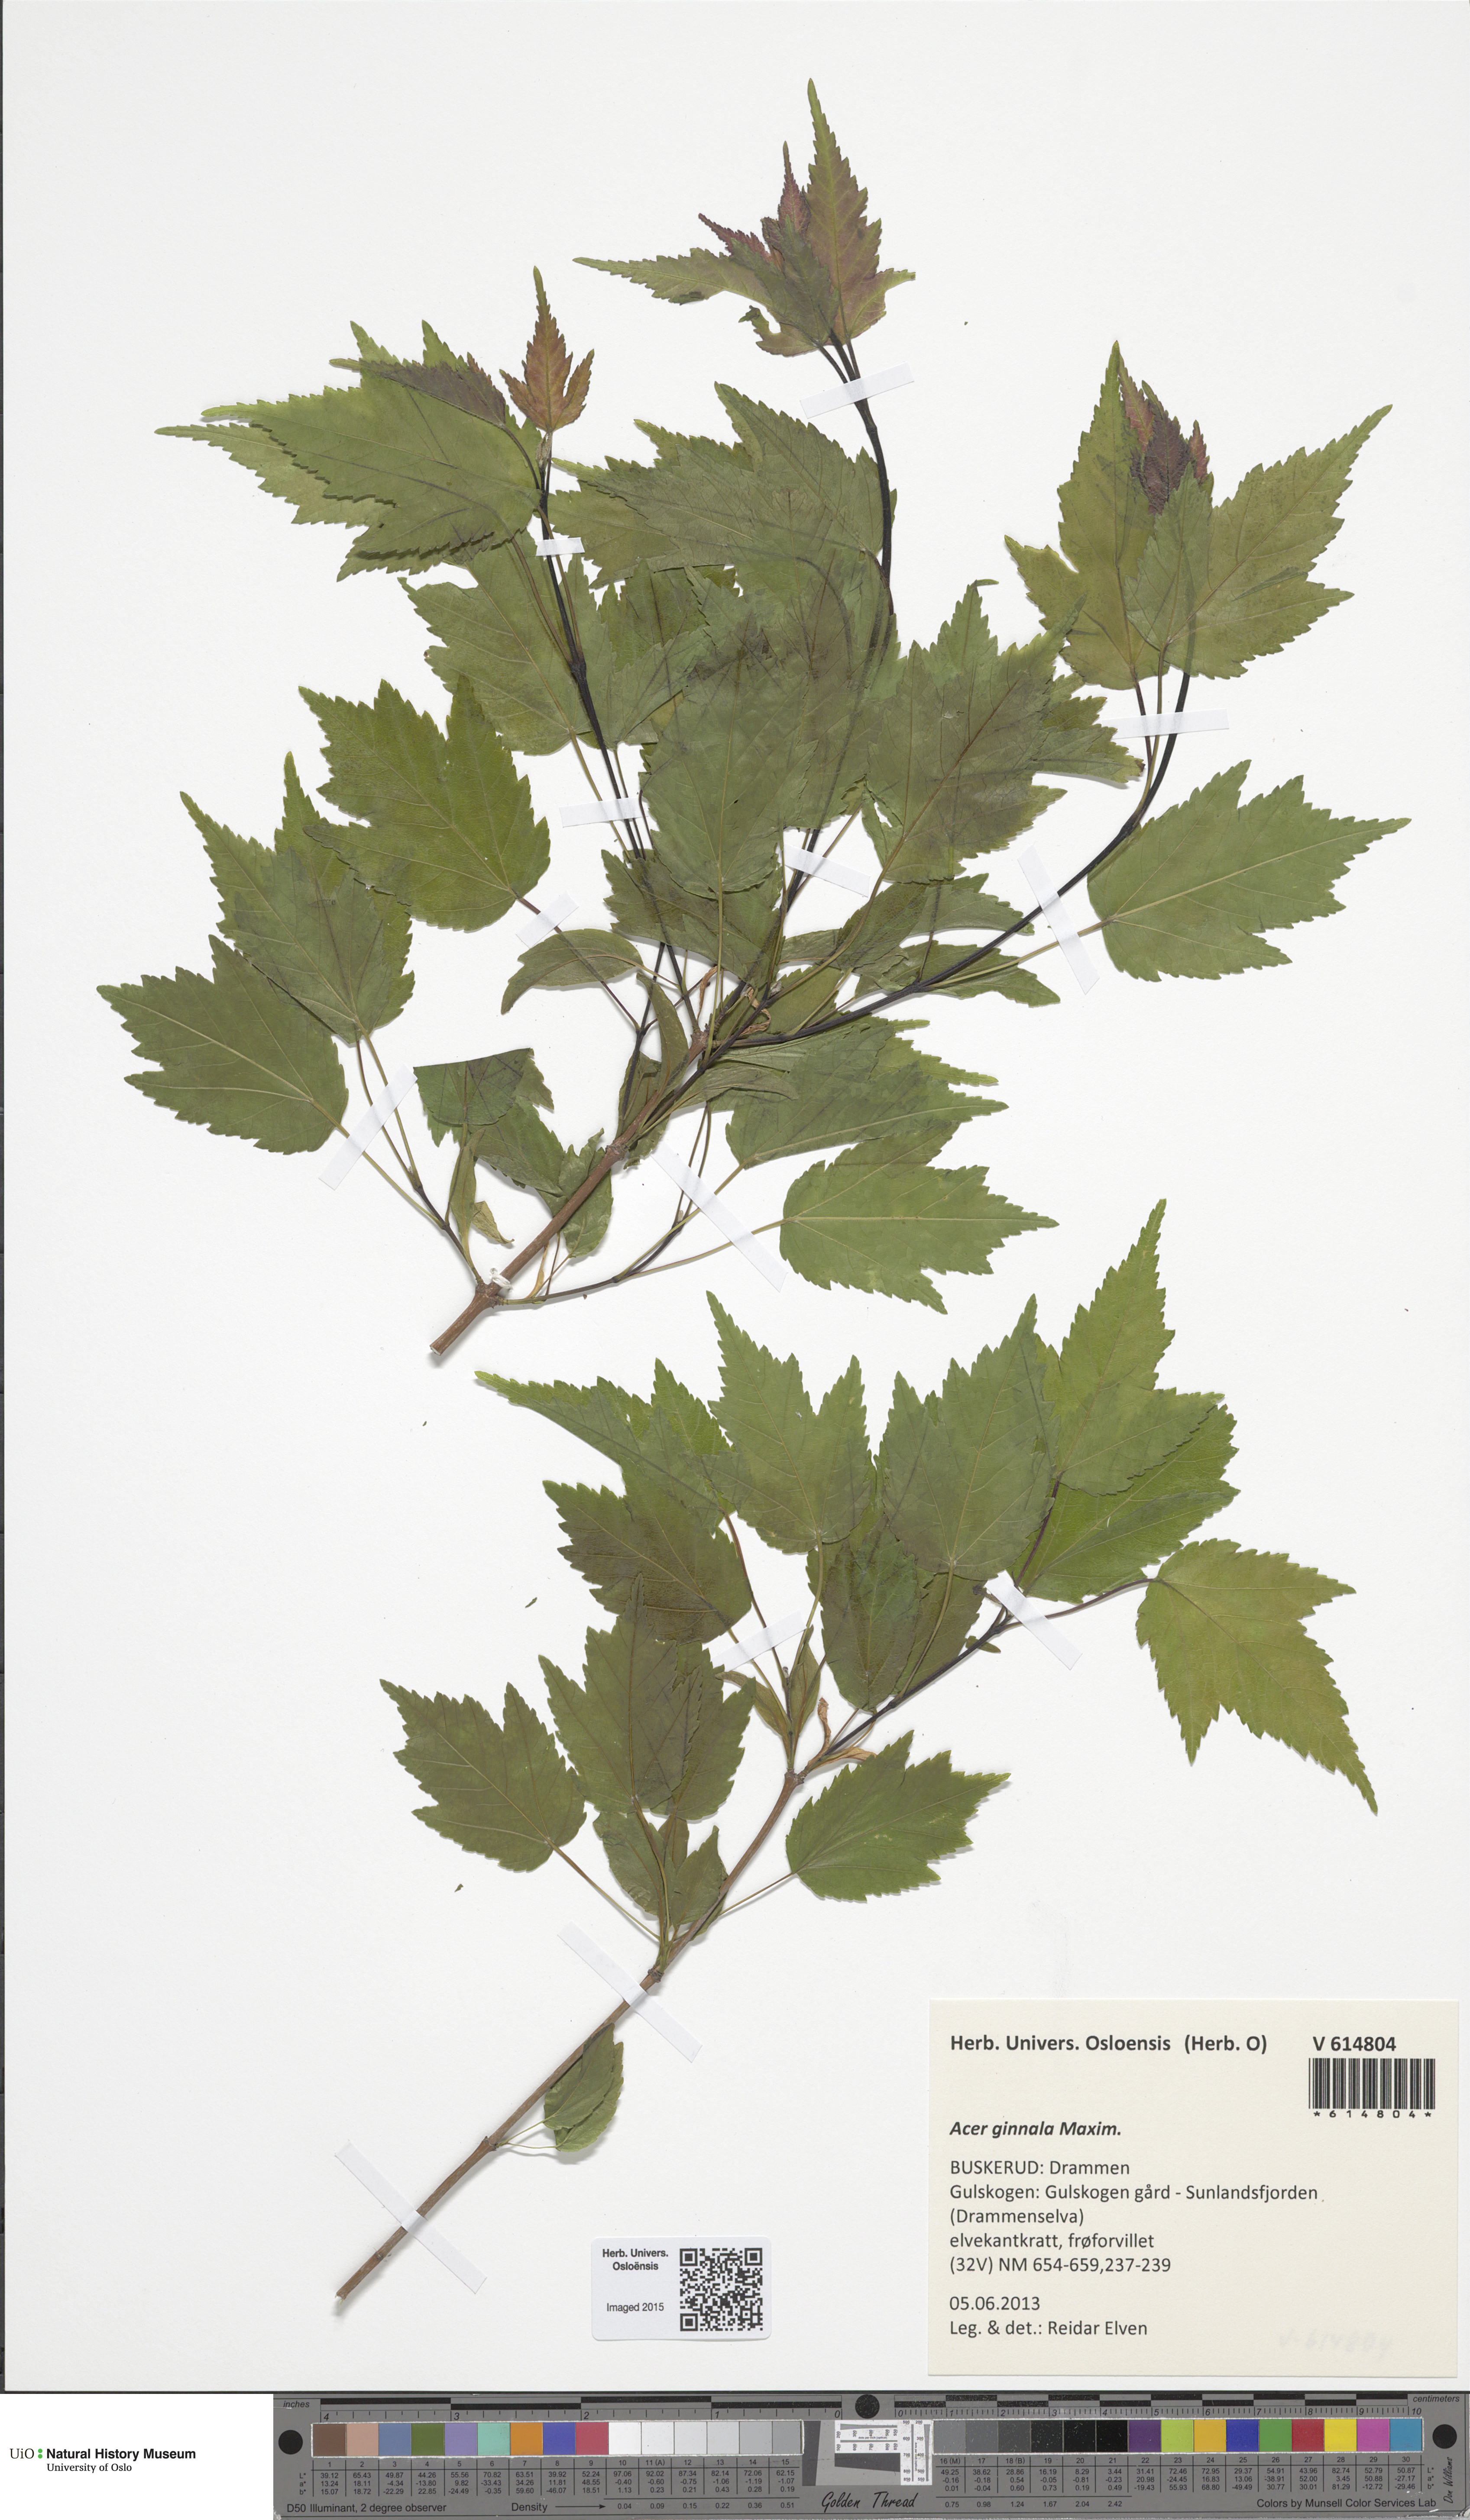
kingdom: Plantae
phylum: Tracheophyta
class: Magnoliopsida
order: Sapindales
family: Sapindaceae
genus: Acer
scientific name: Acer tataricum
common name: Tartar maple
